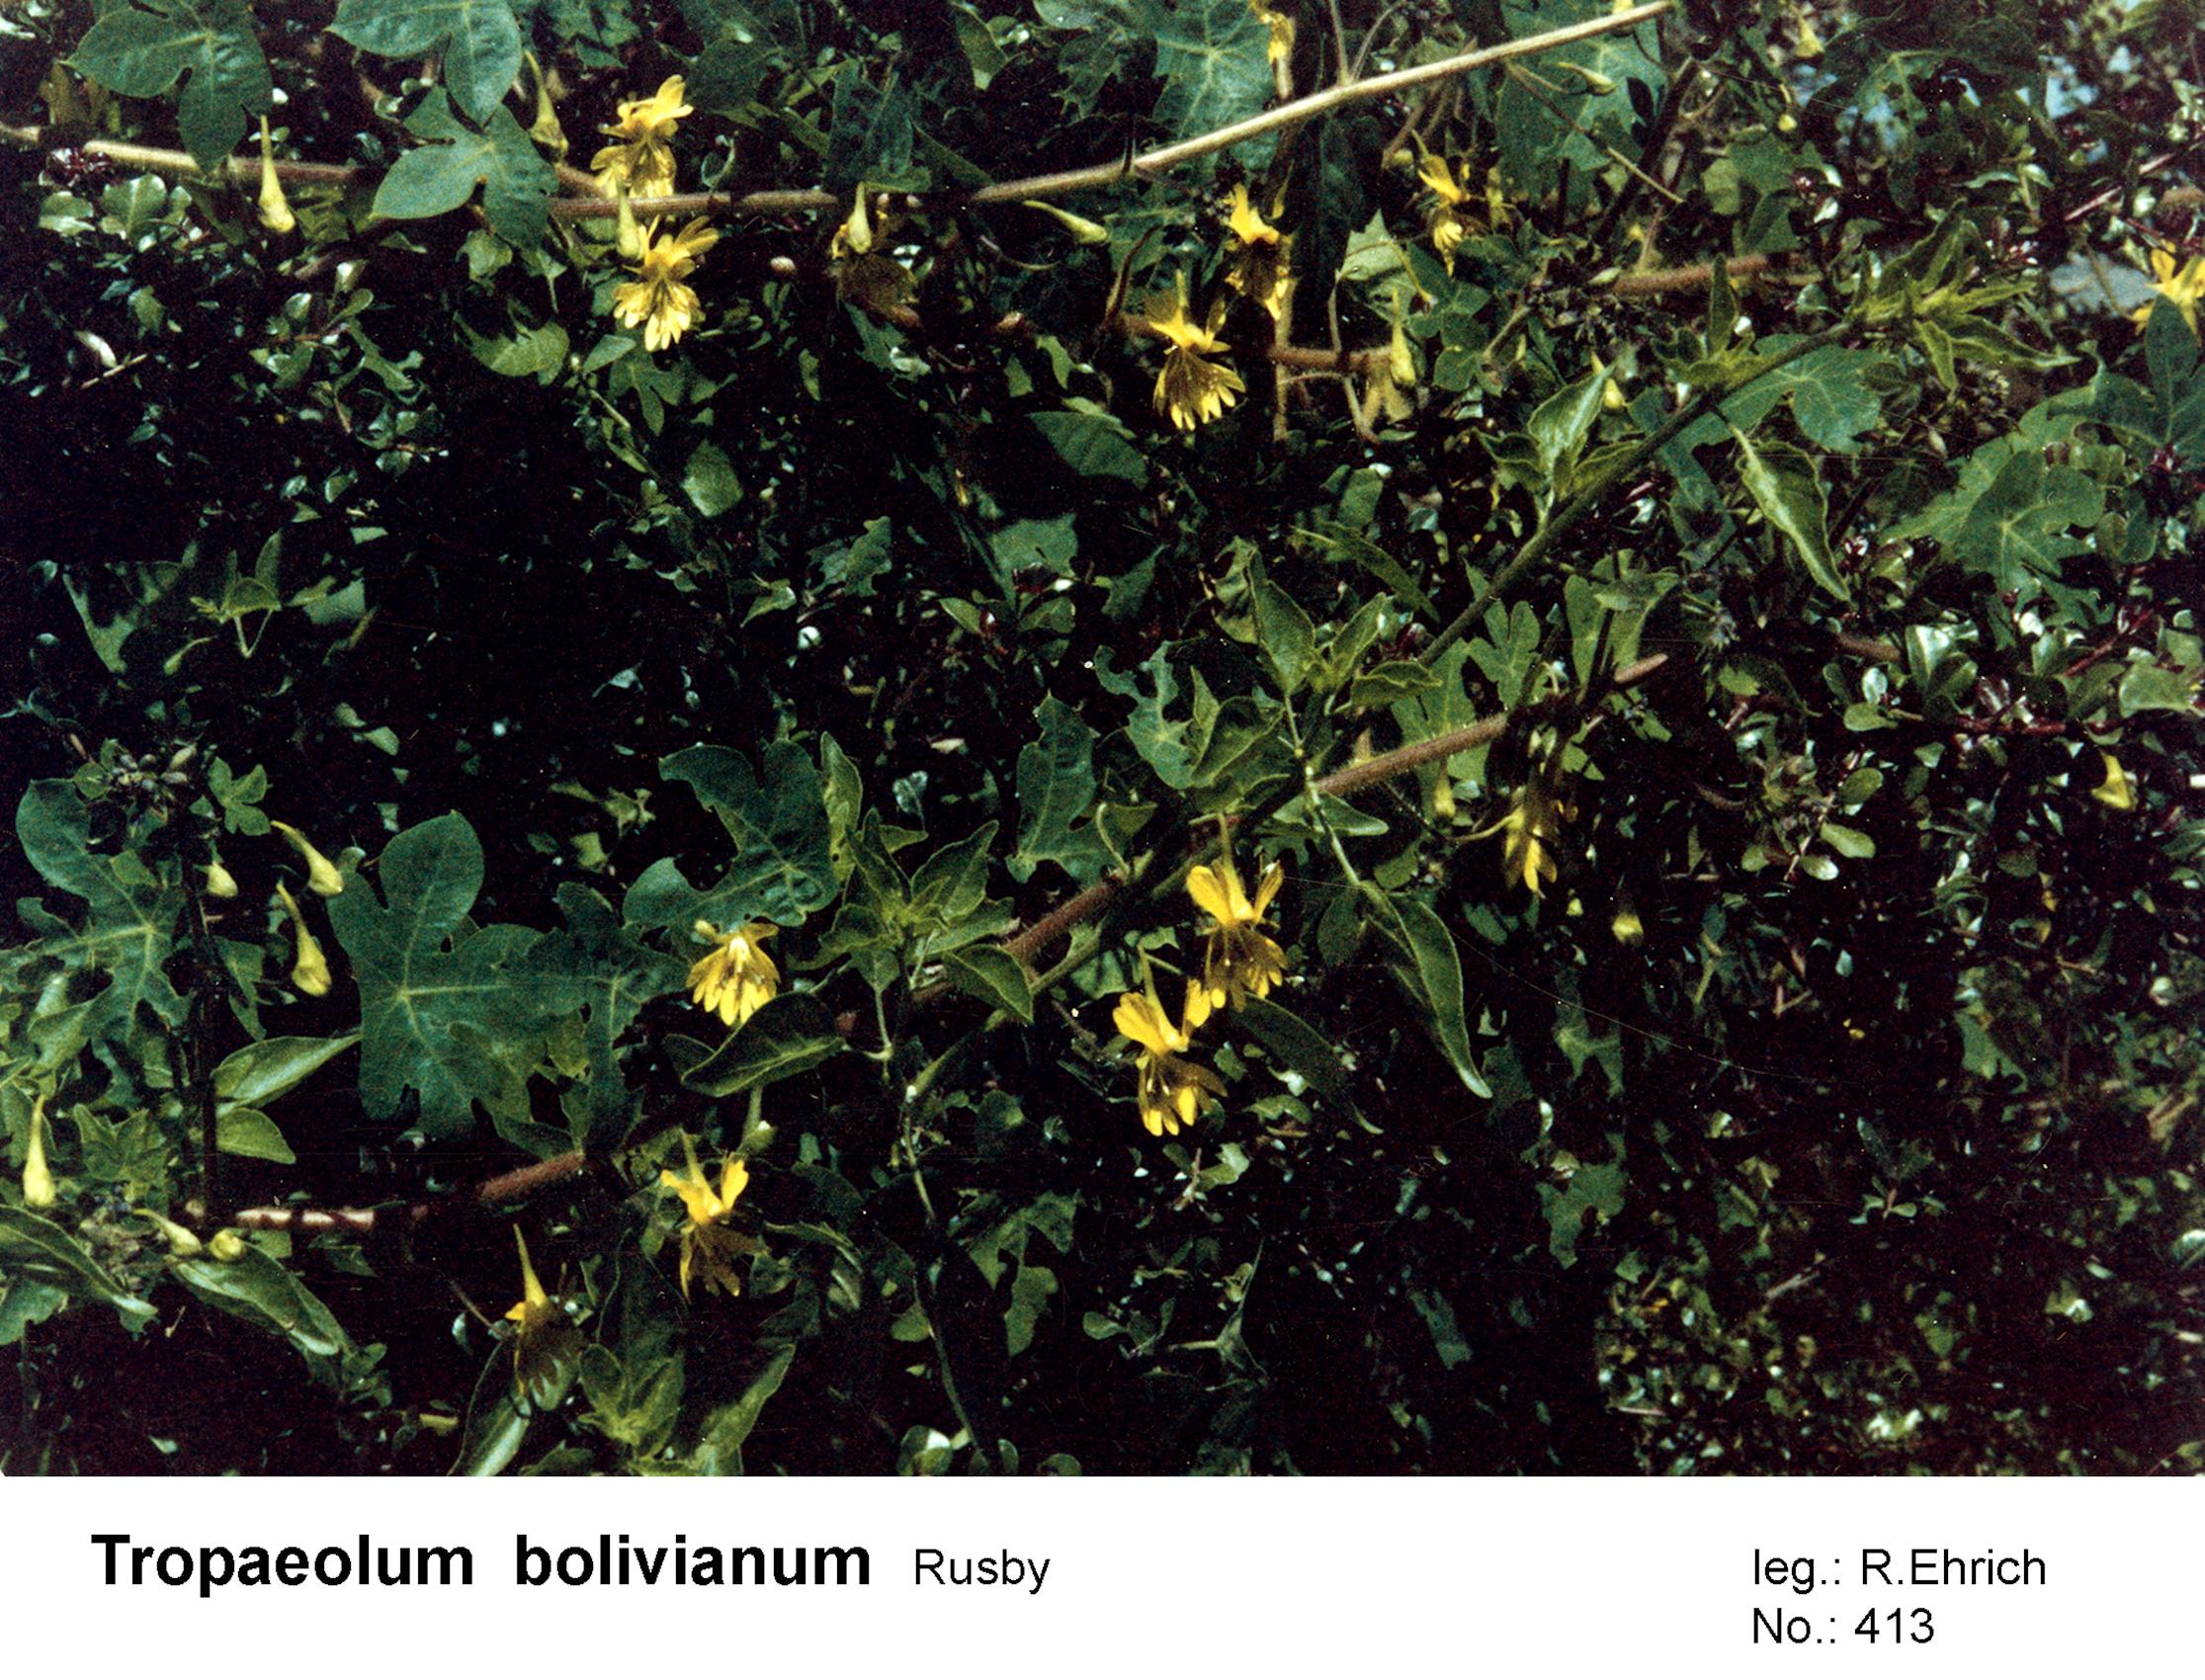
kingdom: Plantae
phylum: Tracheophyta
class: Magnoliopsida
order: Brassicales
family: Tropaeolaceae
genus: Tropaeolum
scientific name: Tropaeolum boliviense
